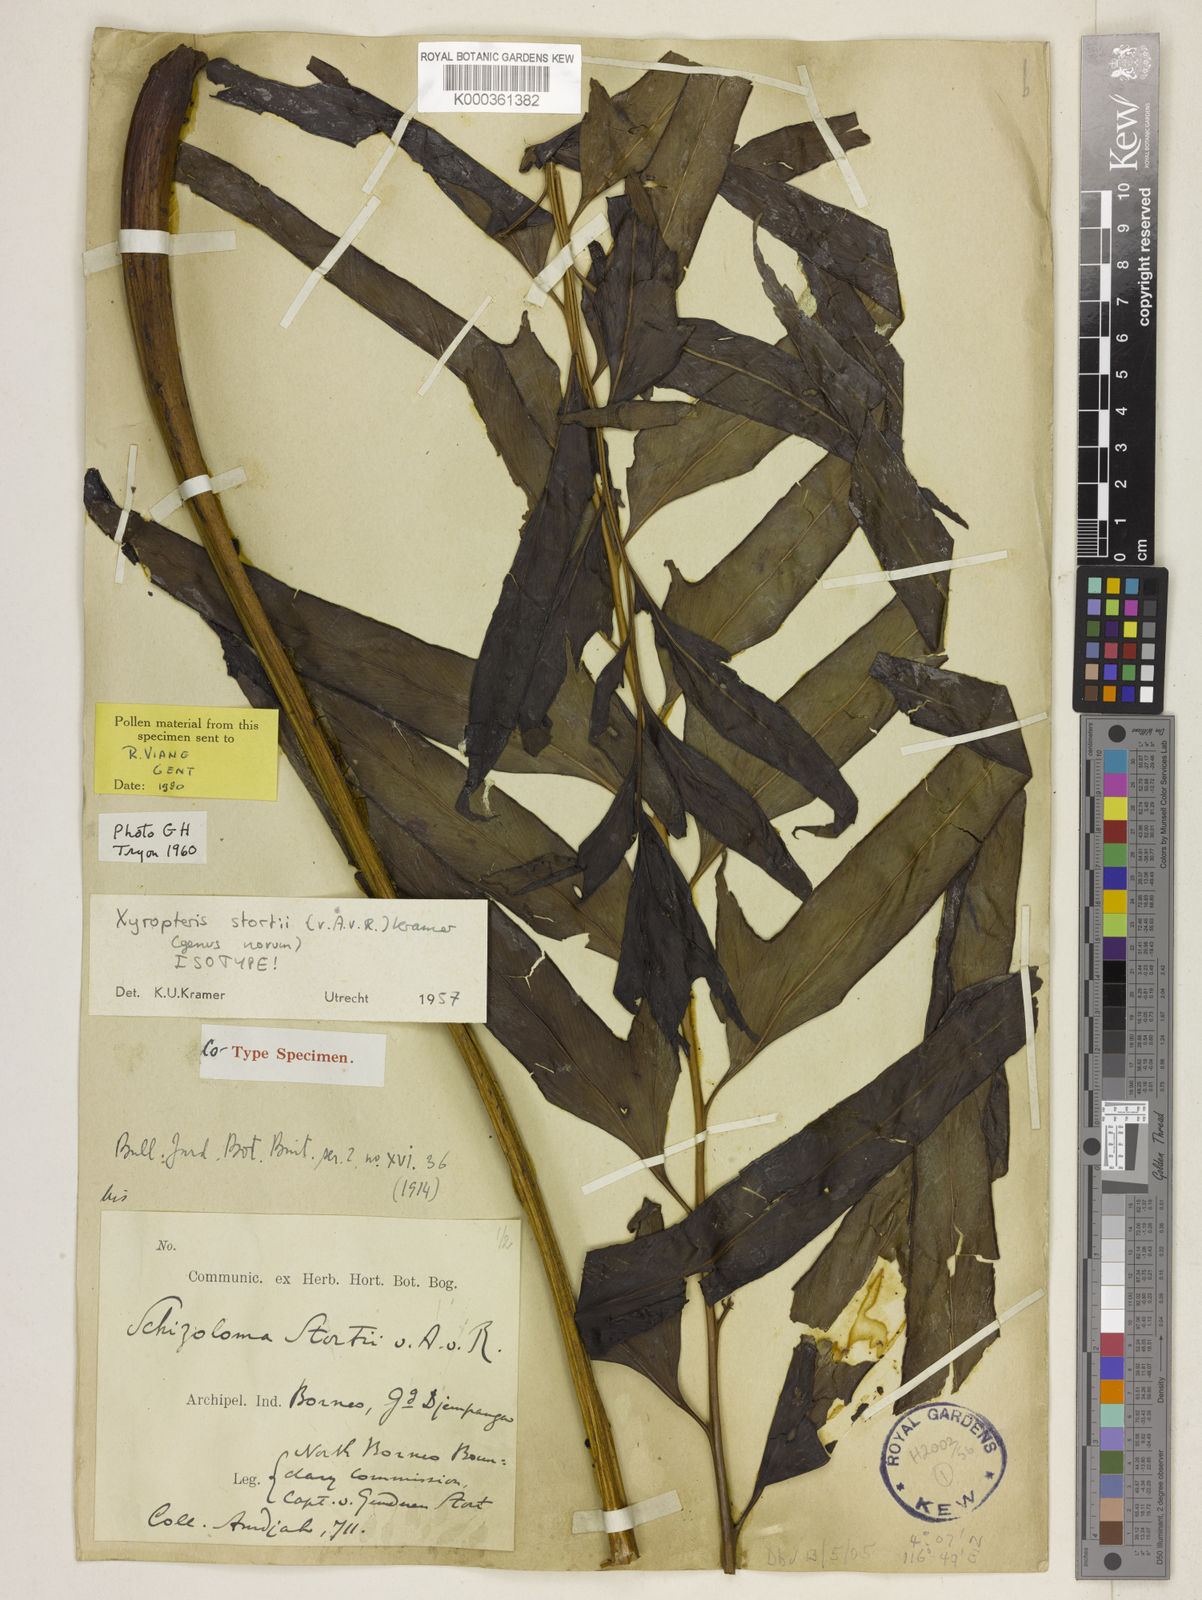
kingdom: Plantae
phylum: Tracheophyta
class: Polypodiopsida
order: Polypodiales
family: Lindsaeaceae
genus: Xyropteris
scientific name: Xyropteris stortii
